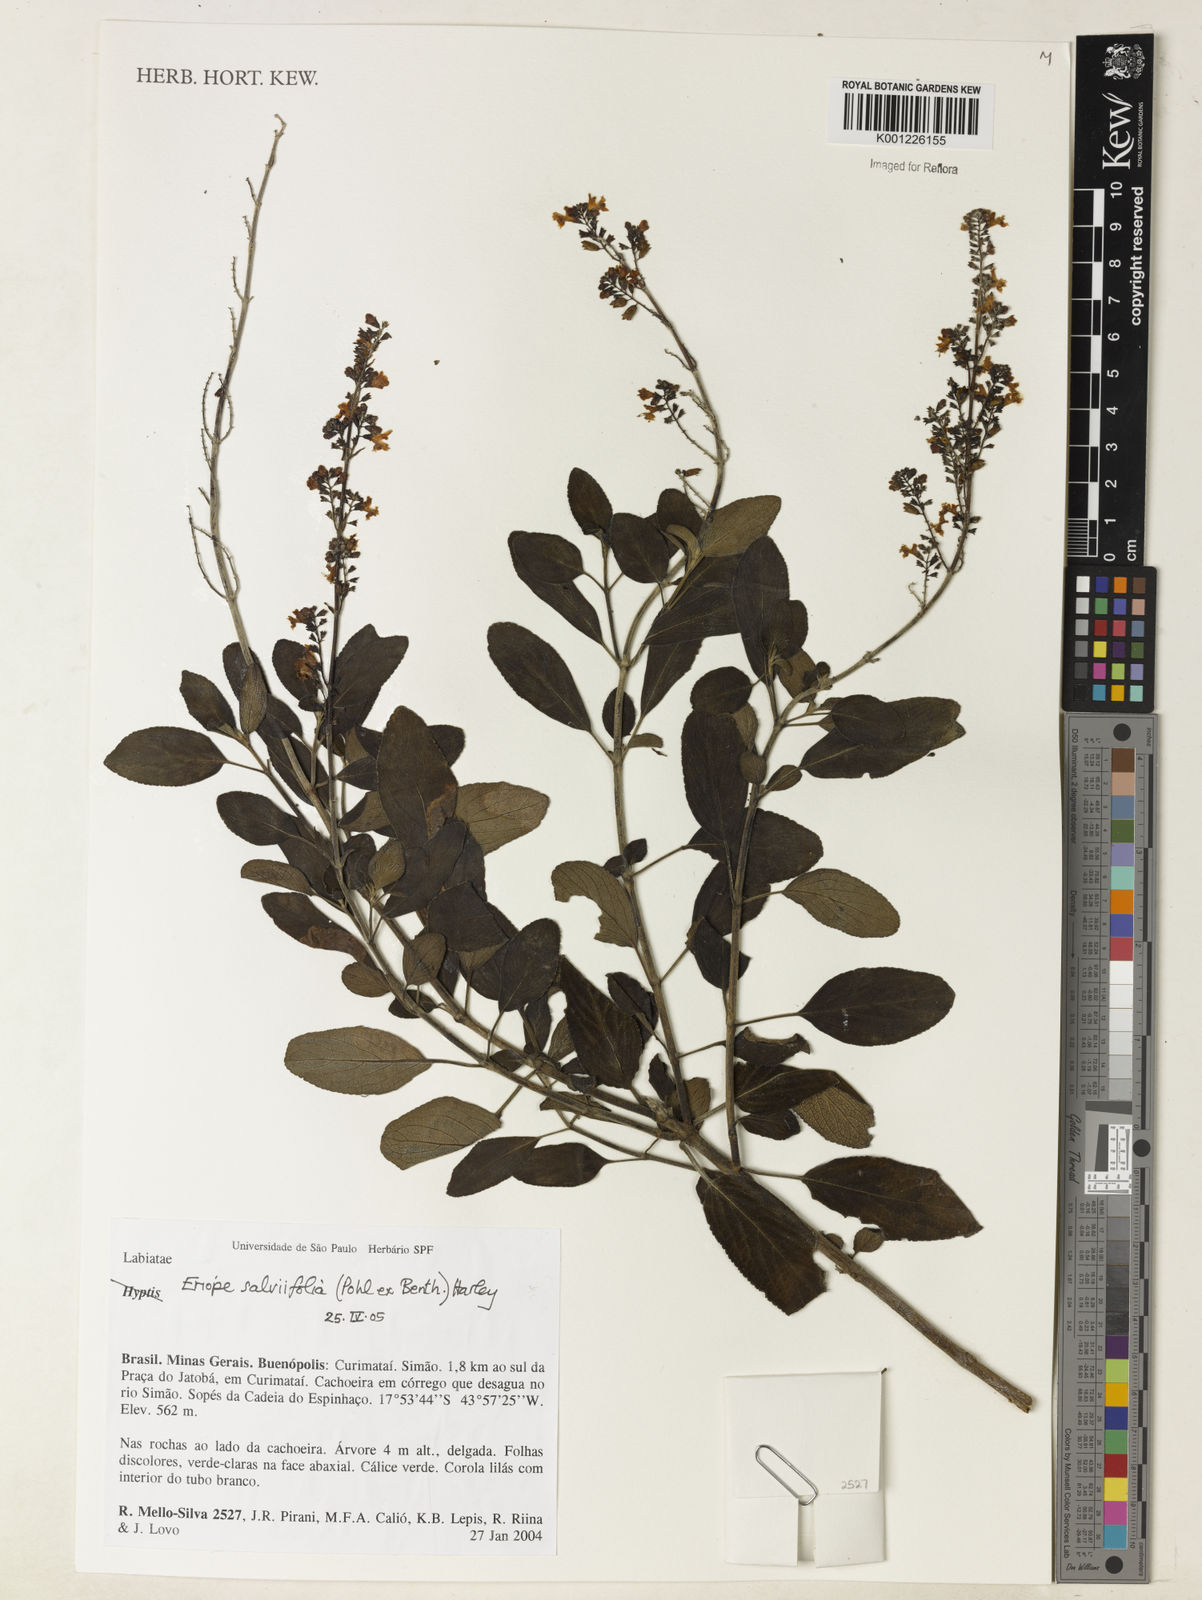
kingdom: Plantae
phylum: Tracheophyta
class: Magnoliopsida
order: Lamiales
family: Lamiaceae
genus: Eriope
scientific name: Eriope salviifolia
